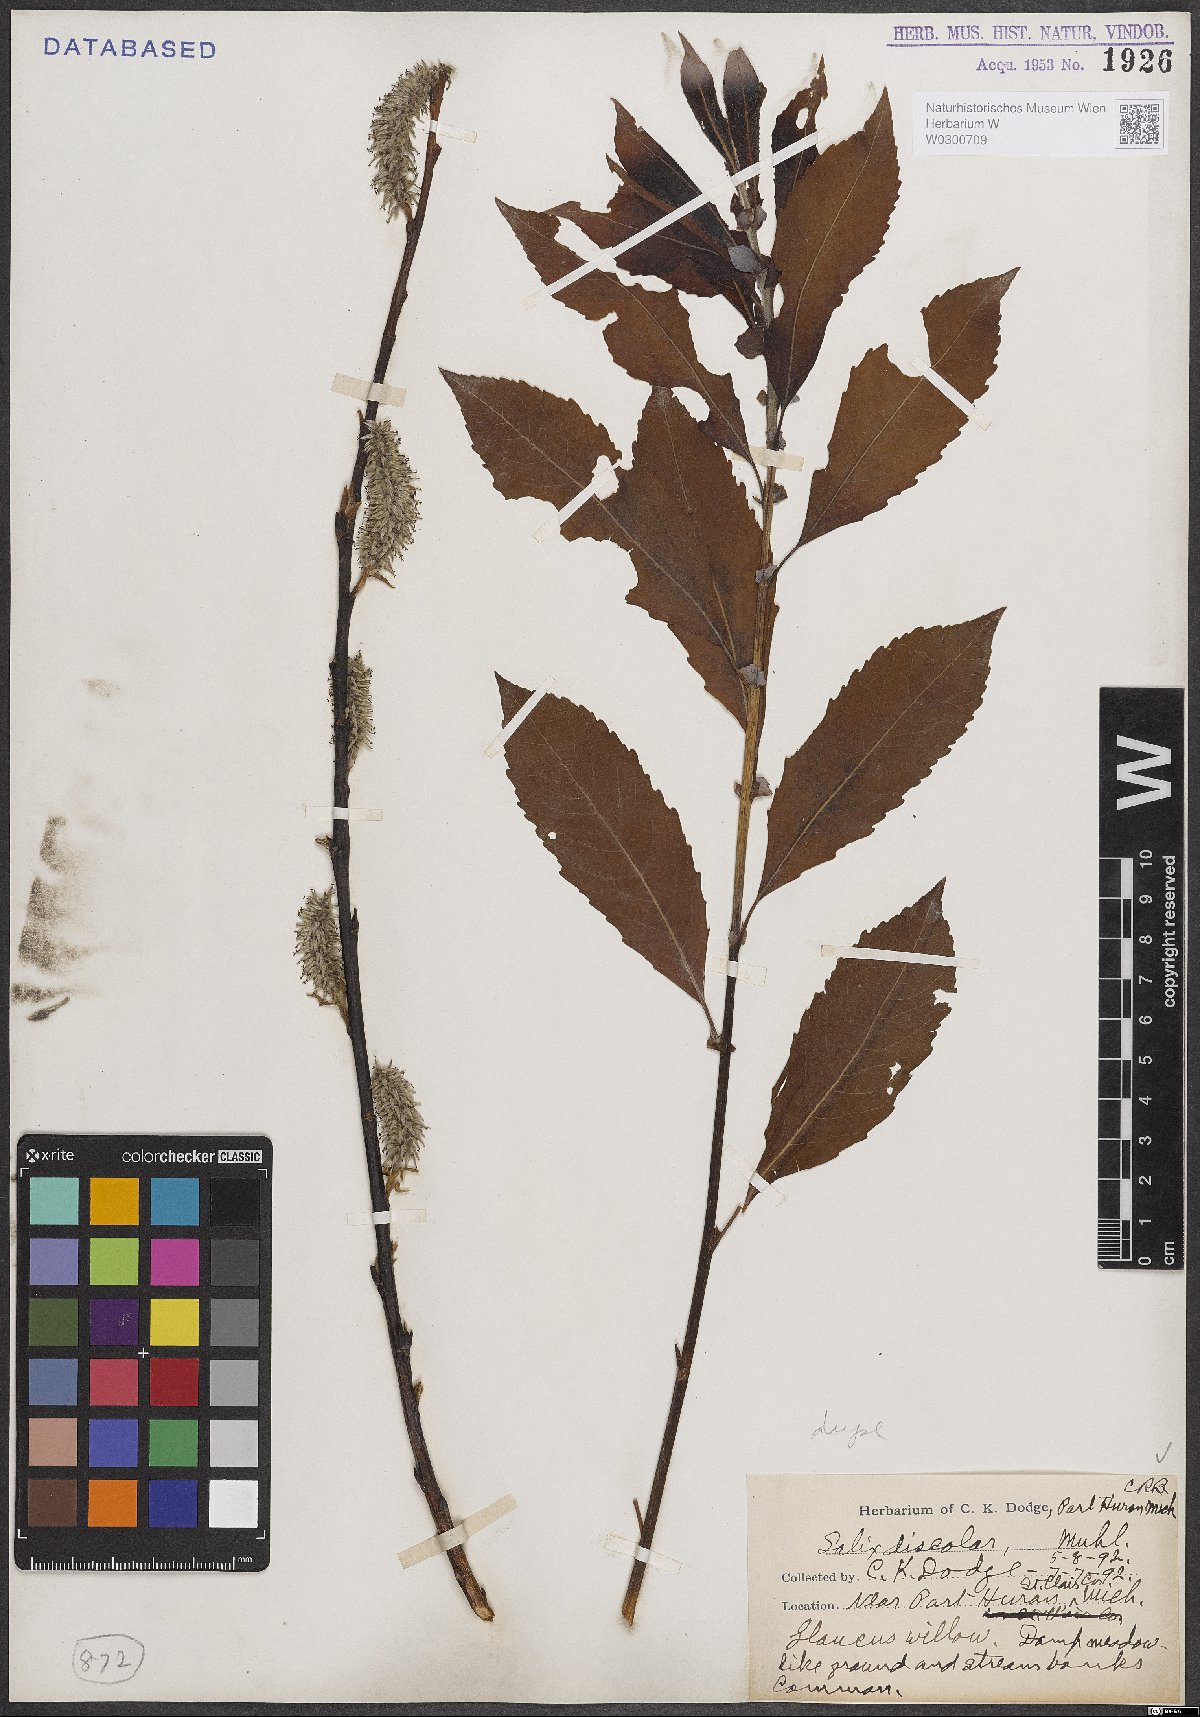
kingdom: Plantae
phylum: Tracheophyta
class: Magnoliopsida
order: Malpighiales
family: Salicaceae
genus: Salix
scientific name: Salix discolor
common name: Glaucous willow
